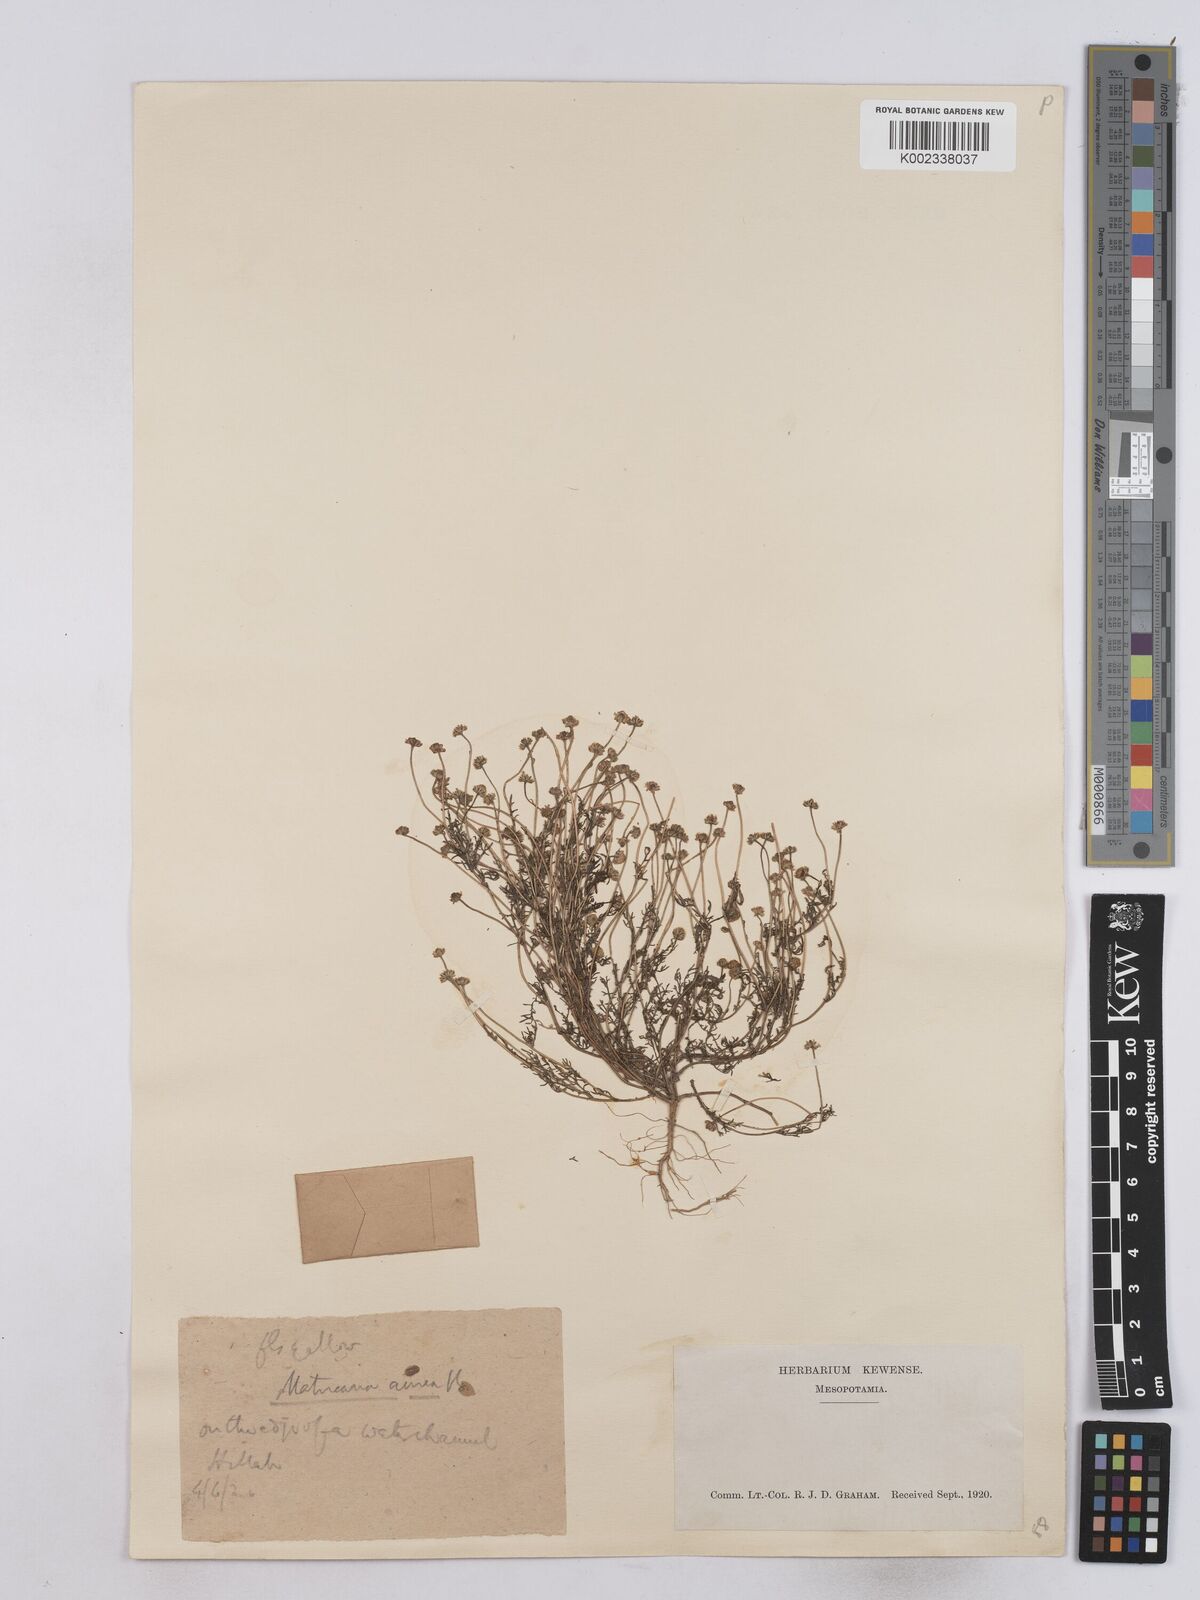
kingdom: Plantae
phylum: Tracheophyta
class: Magnoliopsida
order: Asterales
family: Asteraceae
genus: Matricaria
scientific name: Matricaria aurea
